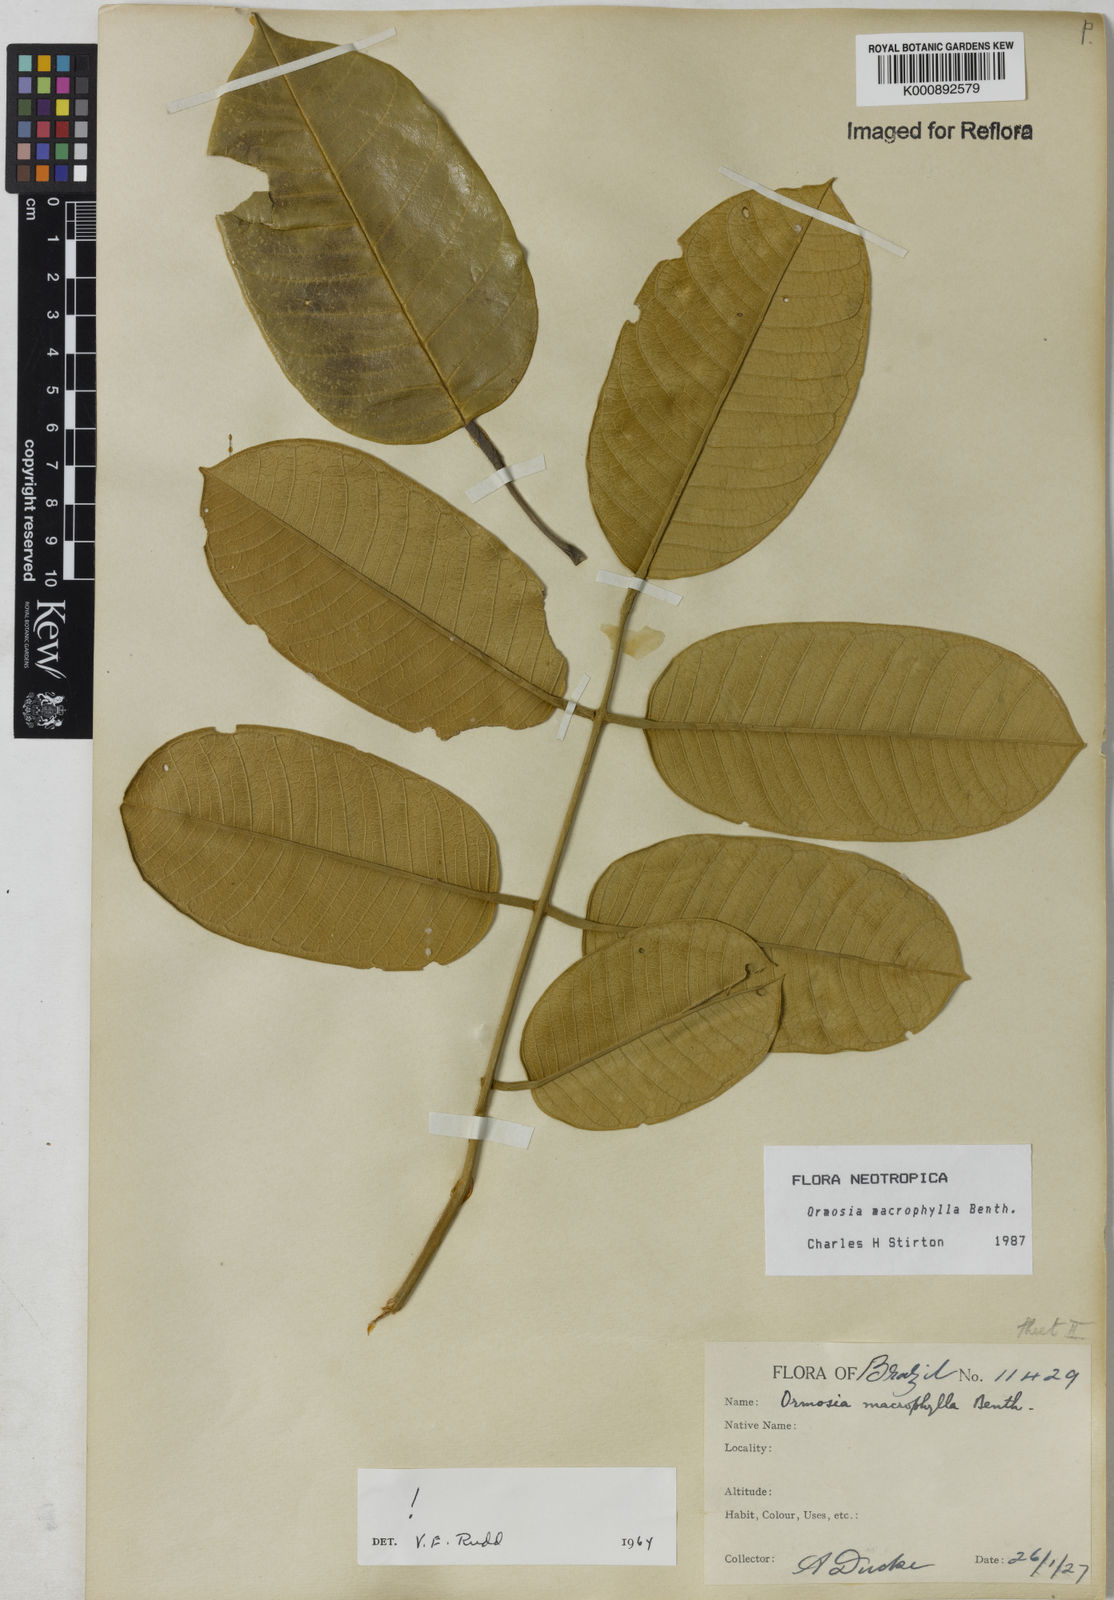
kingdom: Plantae
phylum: Tracheophyta
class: Magnoliopsida
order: Fabales
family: Fabaceae
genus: Ormosia
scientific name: Ormosia macrophylla
